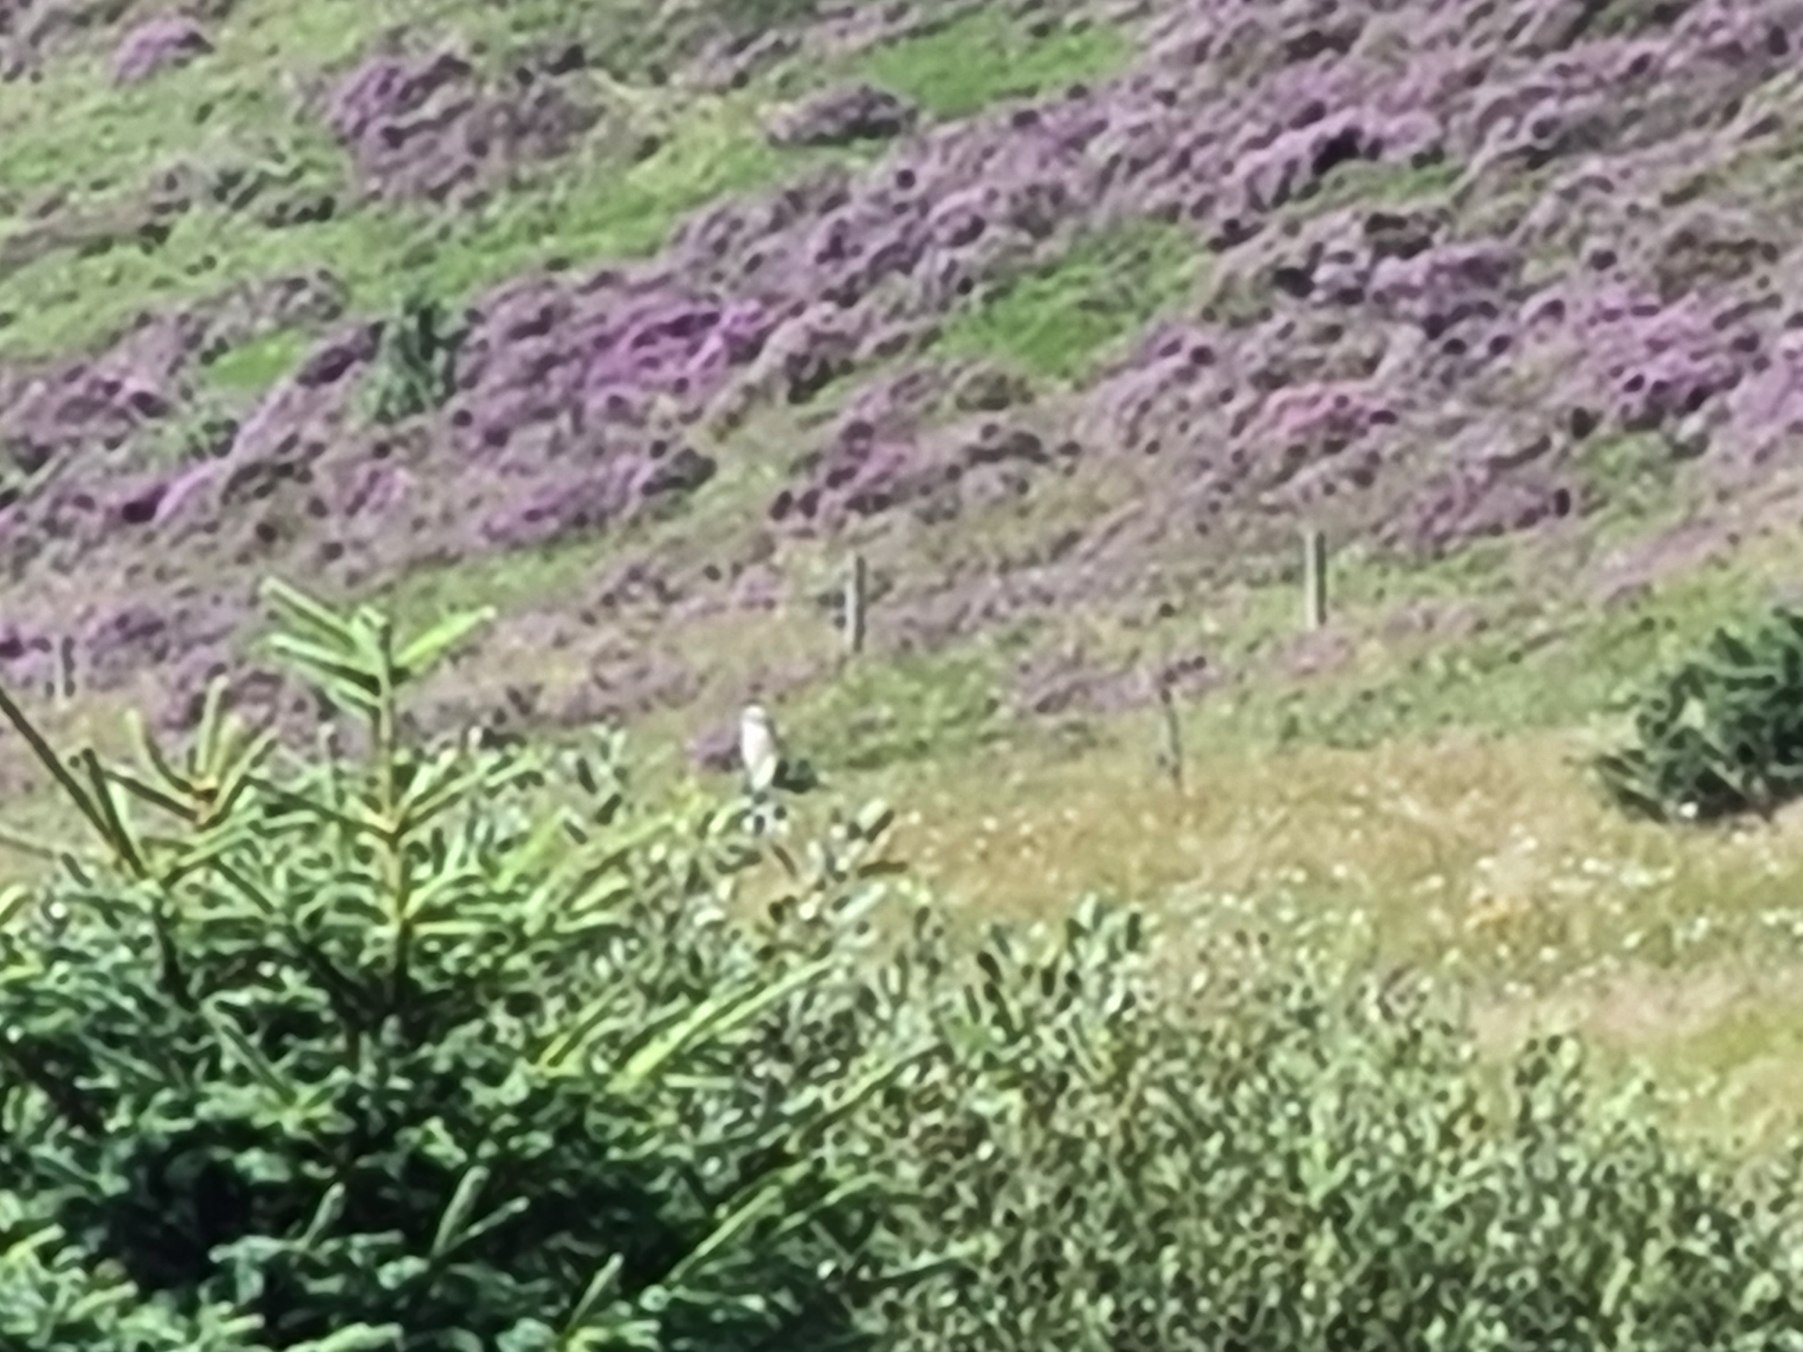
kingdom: Animalia
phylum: Chordata
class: Aves
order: Passeriformes
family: Laniidae
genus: Lanius
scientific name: Lanius collurio
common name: Rødrygget tornskade
